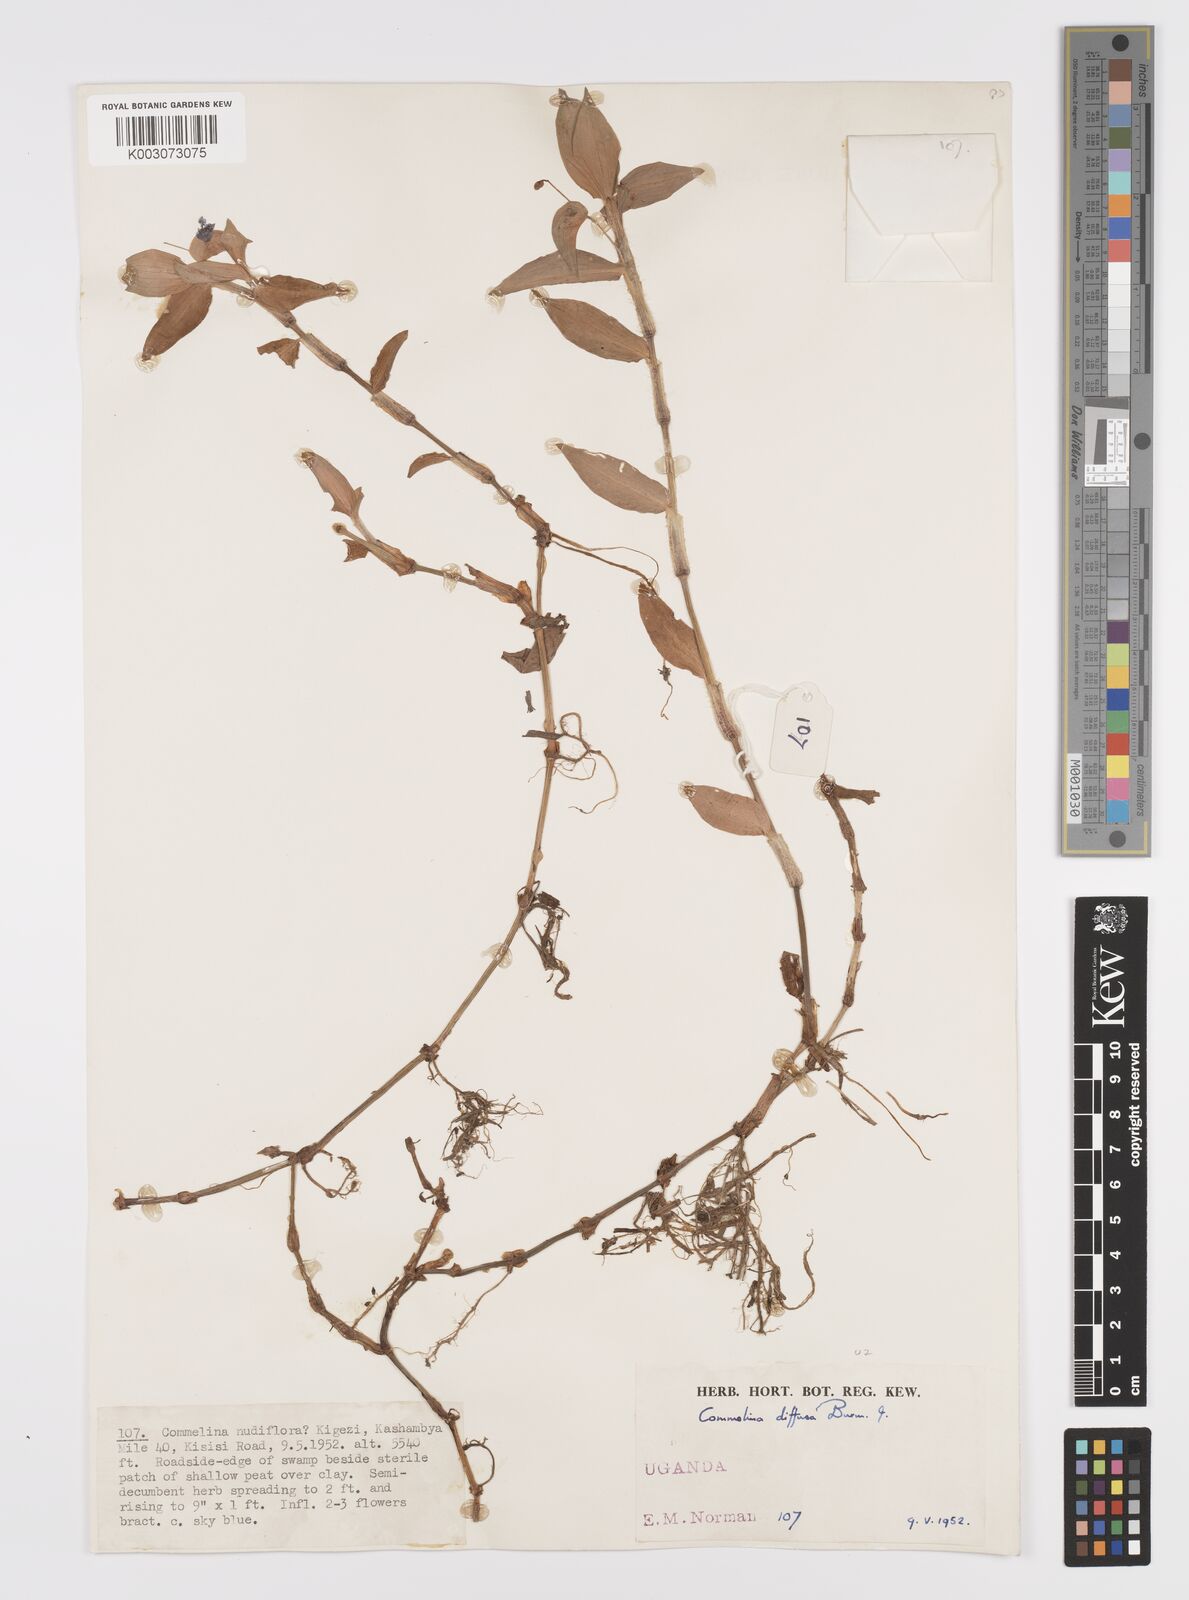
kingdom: Plantae
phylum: Tracheophyta
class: Liliopsida
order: Commelinales
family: Commelinaceae
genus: Commelina
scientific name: Commelina diffusa
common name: Climbing dayflower
